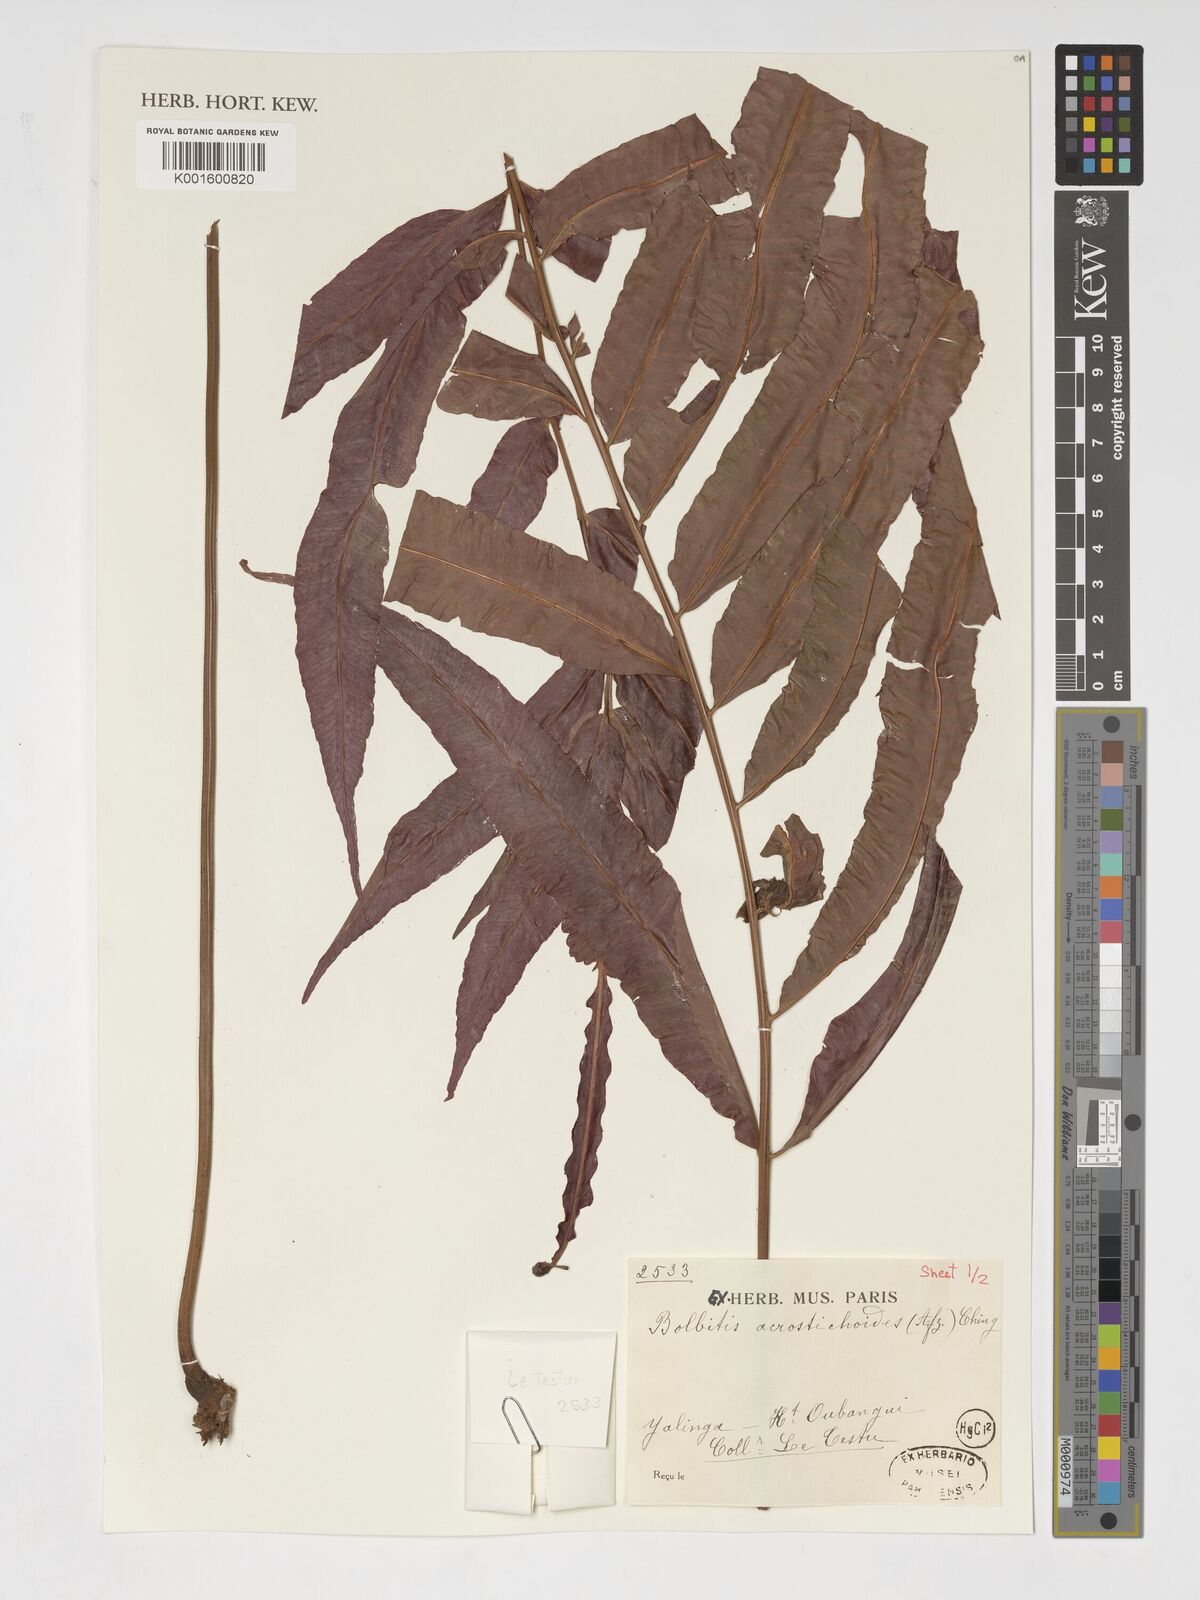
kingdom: Plantae
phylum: Tracheophyta
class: Polypodiopsida
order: Polypodiales
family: Dryopteridaceae
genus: Bolbitis
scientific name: Bolbitis acrostichoides
